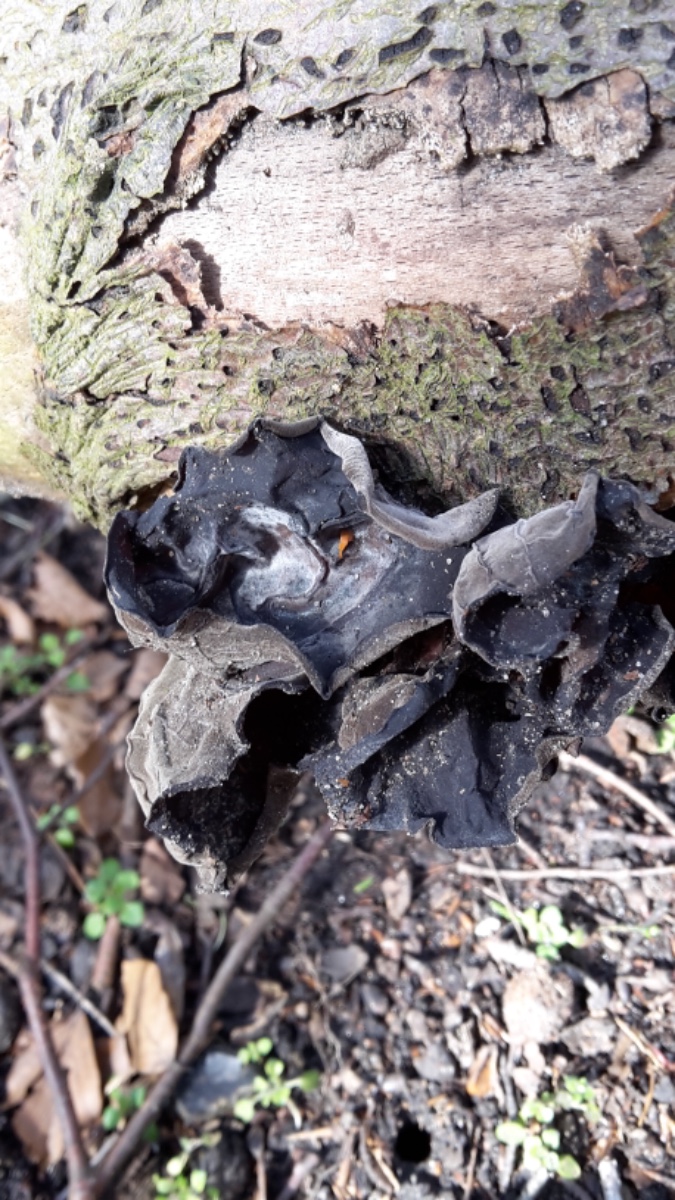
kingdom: Fungi
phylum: Basidiomycota
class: Agaricomycetes
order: Auriculariales
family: Auriculariaceae
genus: Auricularia
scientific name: Auricularia auricula-judae
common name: almindelig judasøre
